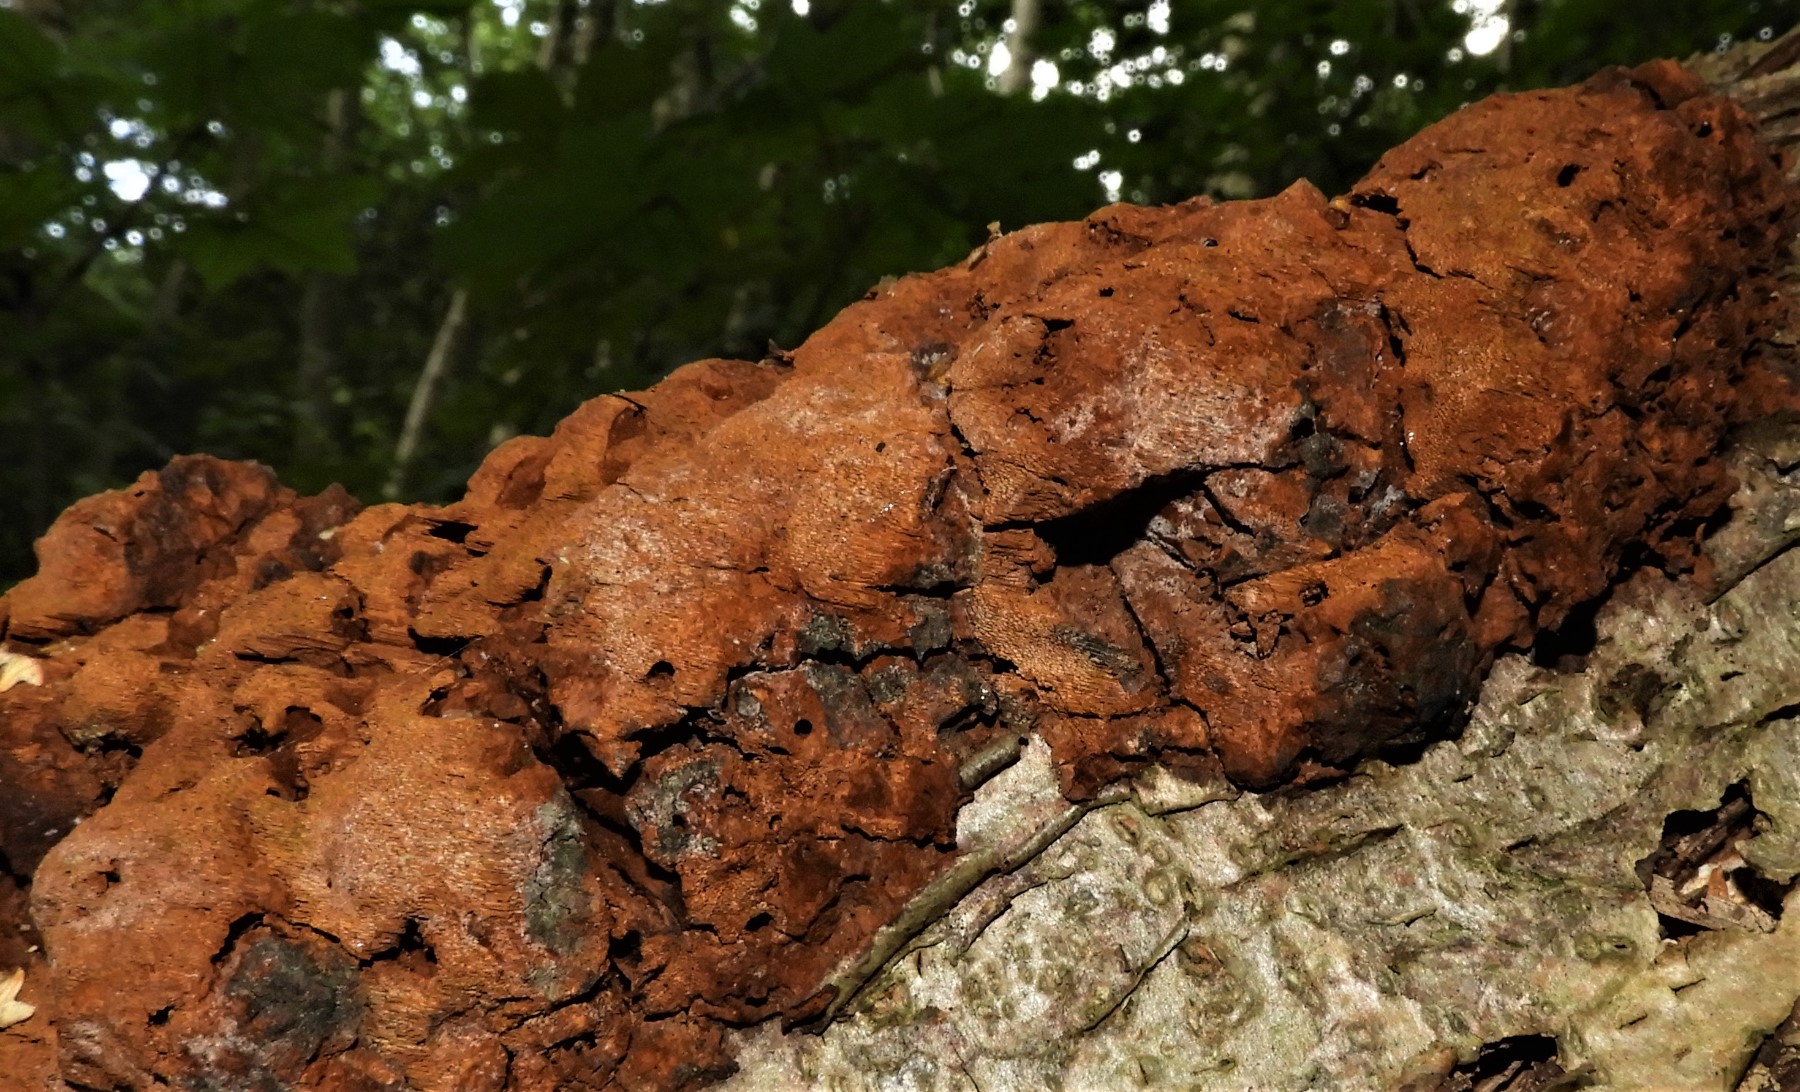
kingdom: Fungi
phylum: Basidiomycota
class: Agaricomycetes
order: Hymenochaetales
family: Hymenochaetaceae
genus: Fuscoporia
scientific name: Fuscoporia
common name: Ildporesvamp
